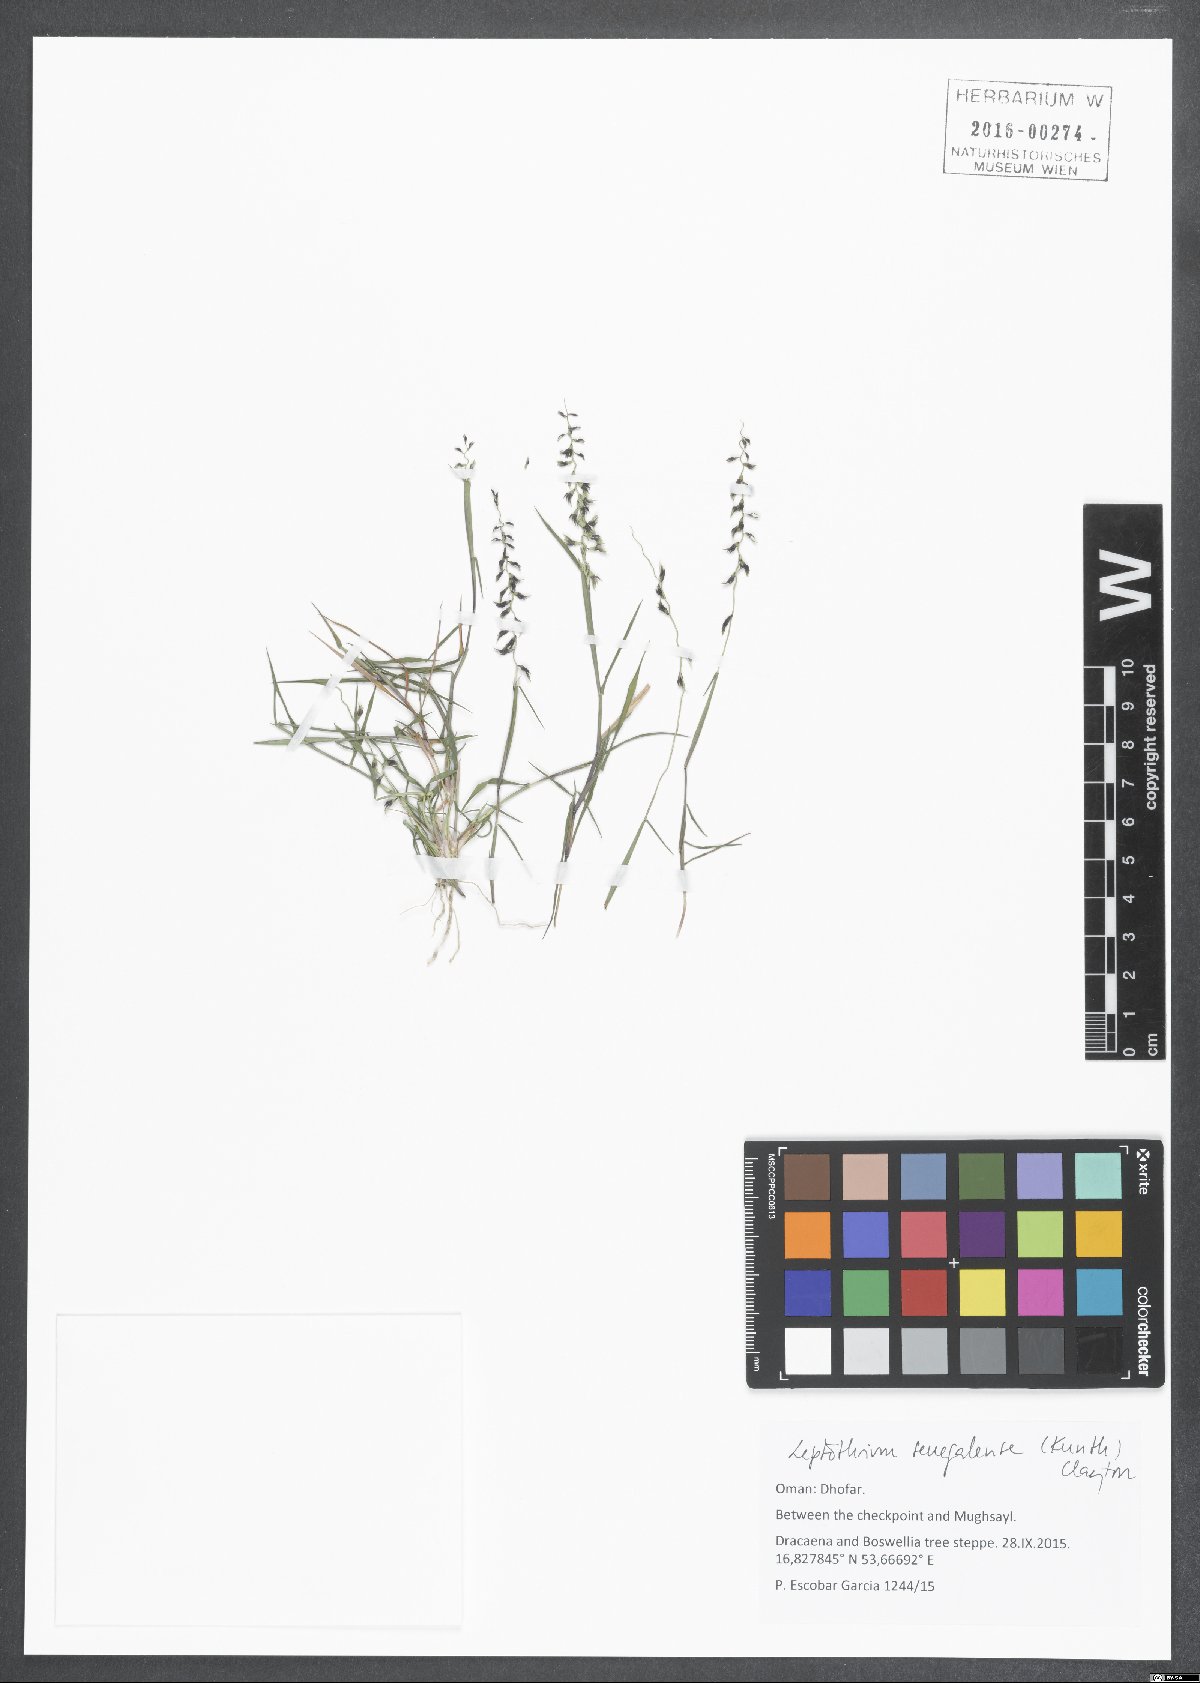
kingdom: Plantae
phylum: Tracheophyta
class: Liliopsida
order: Poales
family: Poaceae
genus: Leptothrium
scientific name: Leptothrium senegalense
